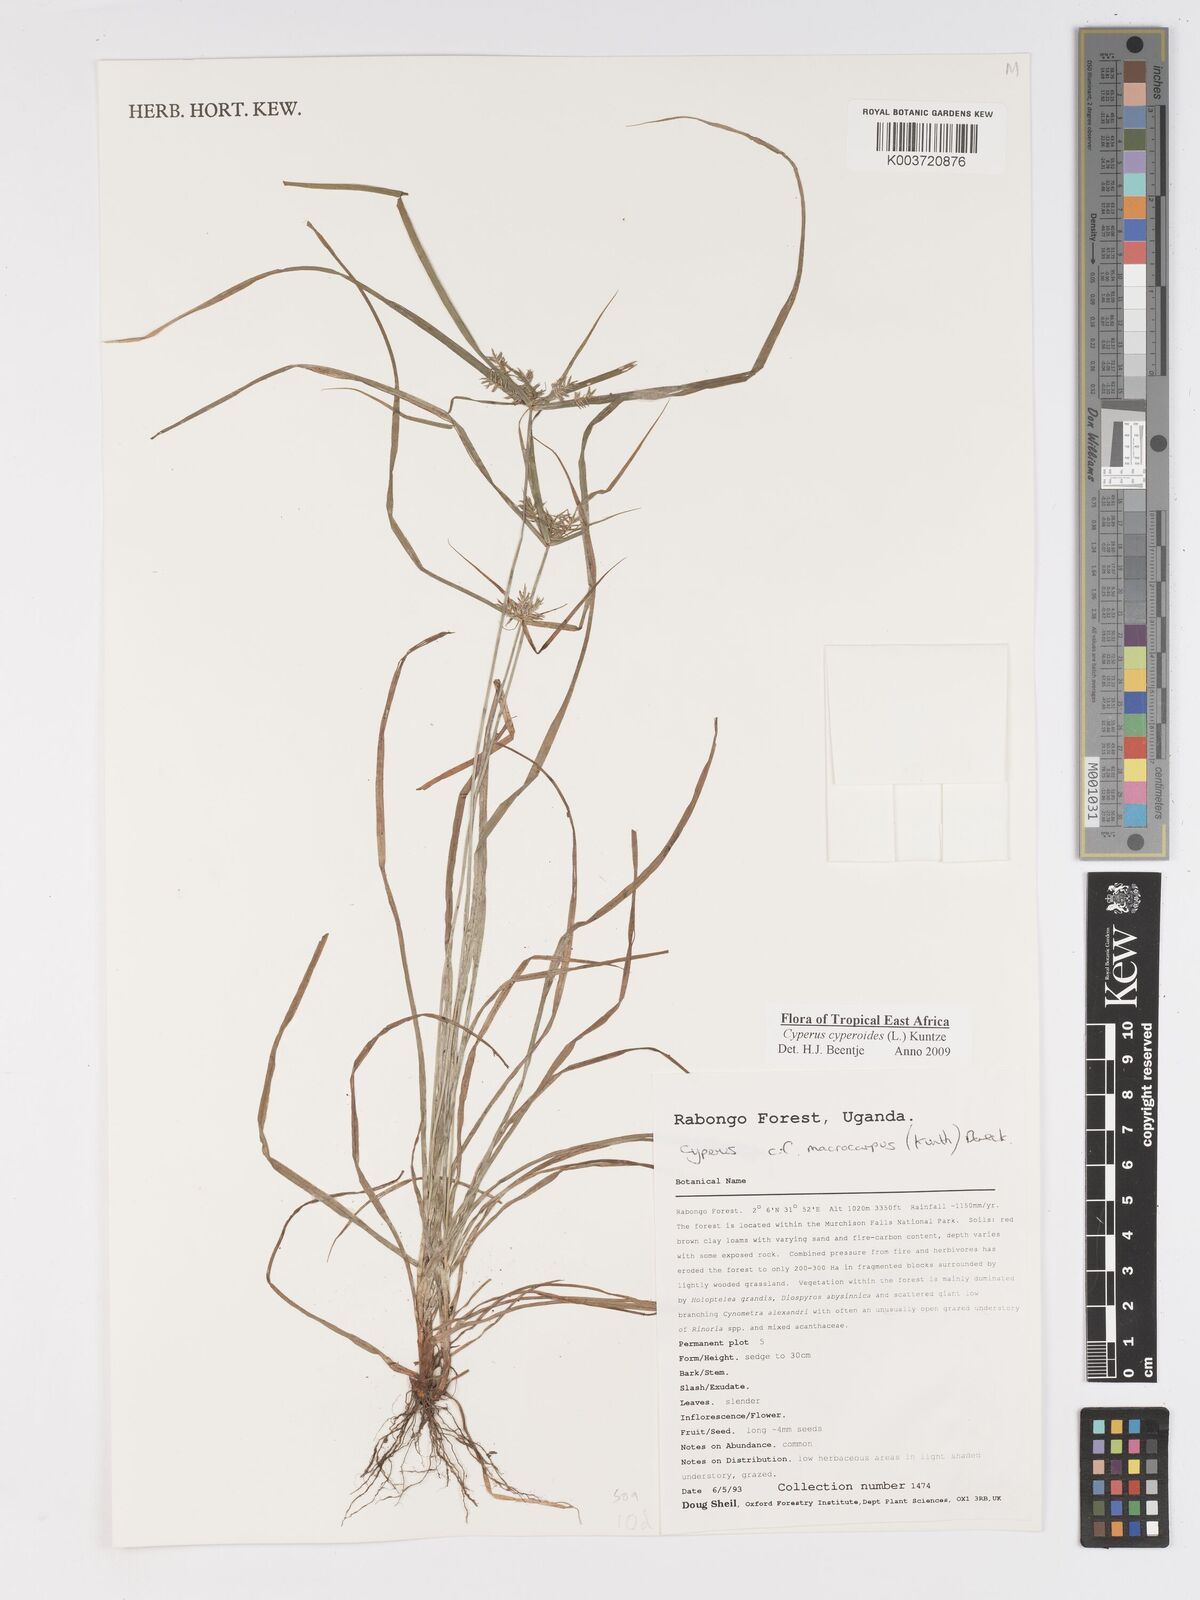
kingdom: Plantae
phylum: Tracheophyta
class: Liliopsida
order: Poales
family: Cyperaceae
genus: Cyperus
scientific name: Cyperus macrocarpus
